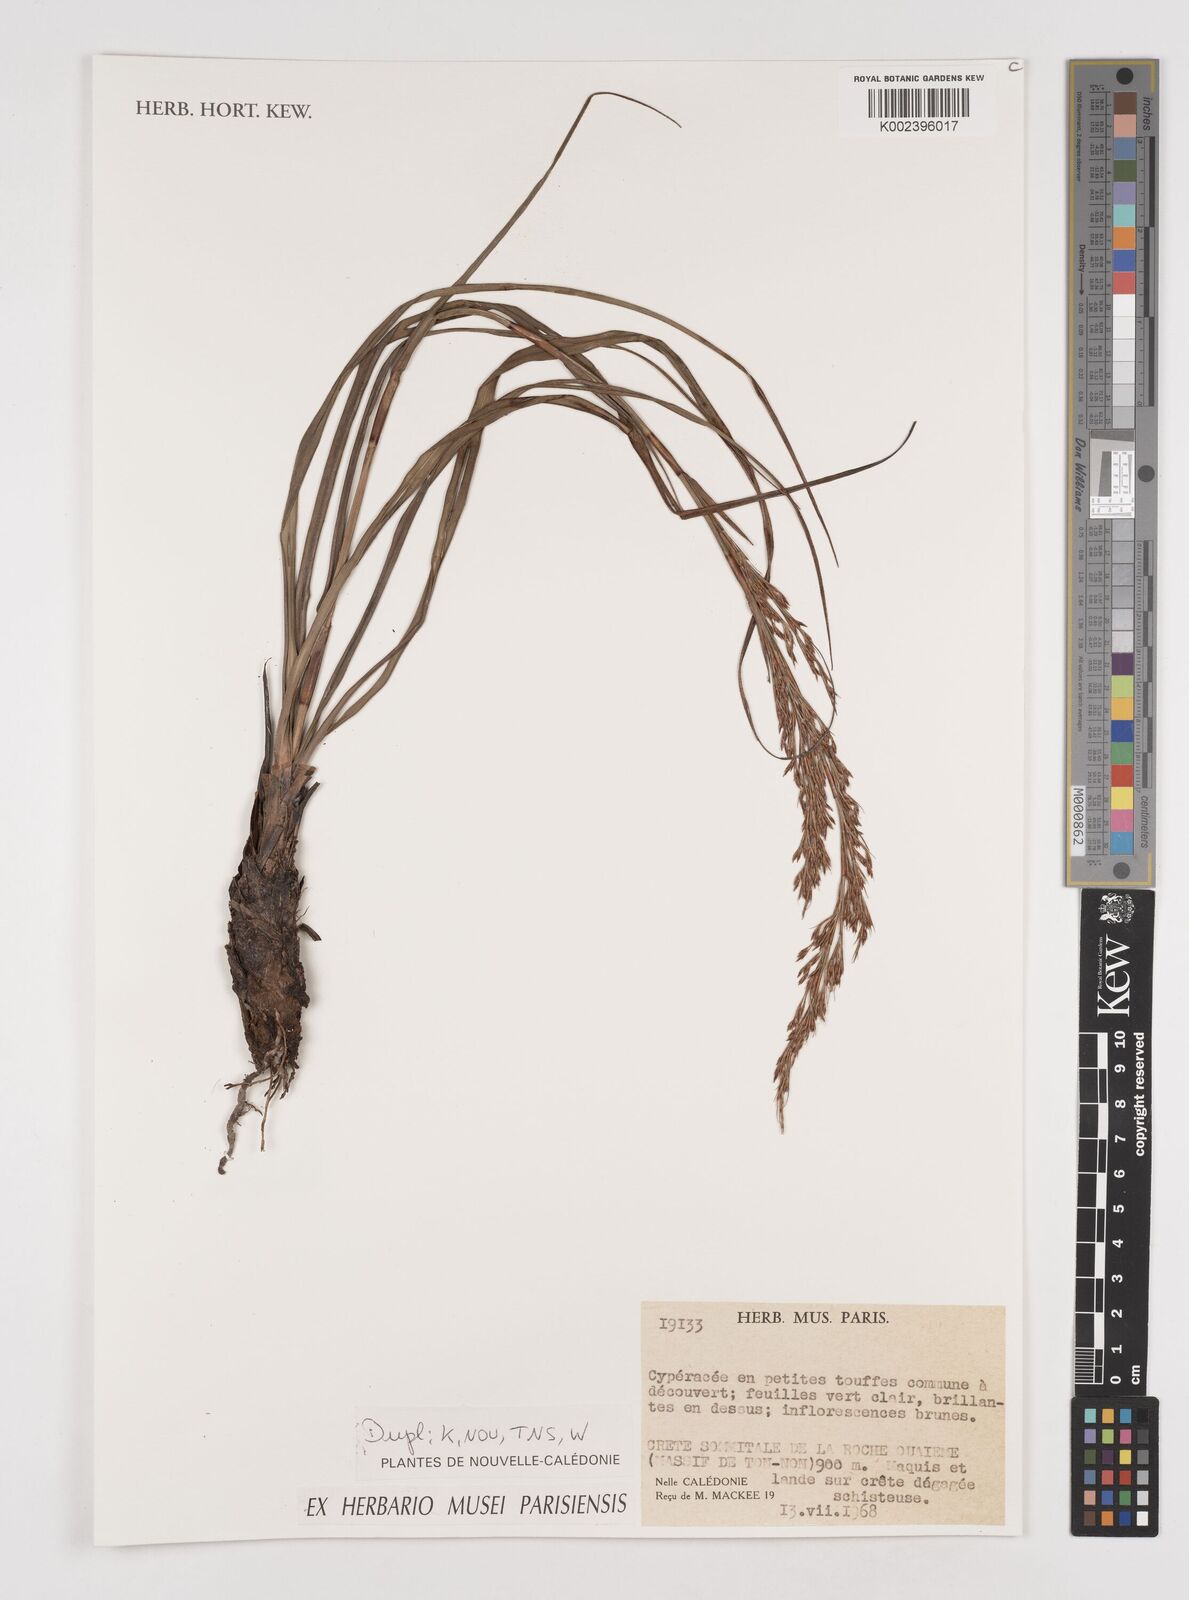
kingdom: Plantae
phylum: Tracheophyta
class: Liliopsida
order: Poales
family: Cyperaceae
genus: Tetraria
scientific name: Tetraria
